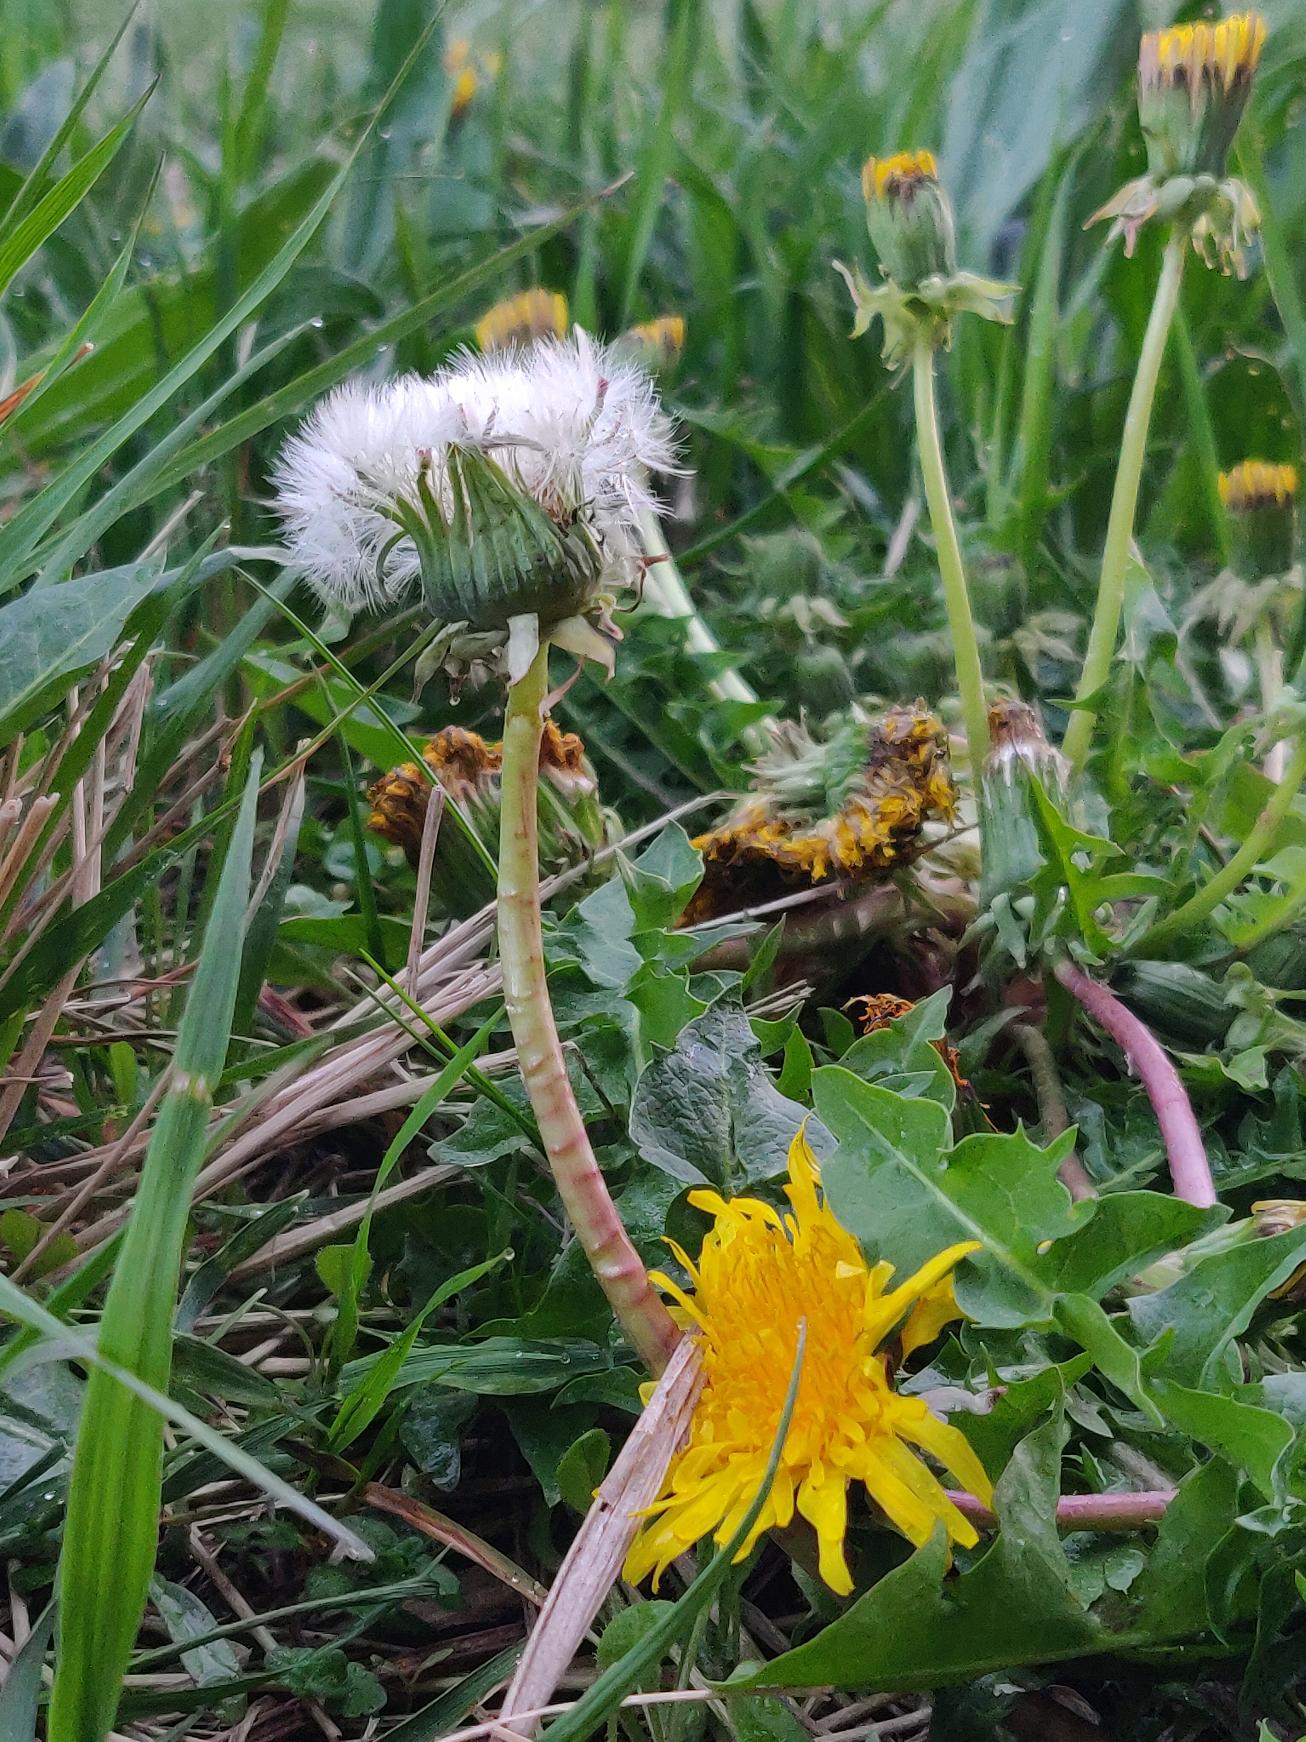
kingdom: Plantae
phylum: Tracheophyta
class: Magnoliopsida
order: Asterales
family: Asteraceae
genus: Taraxacum
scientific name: Taraxacum
